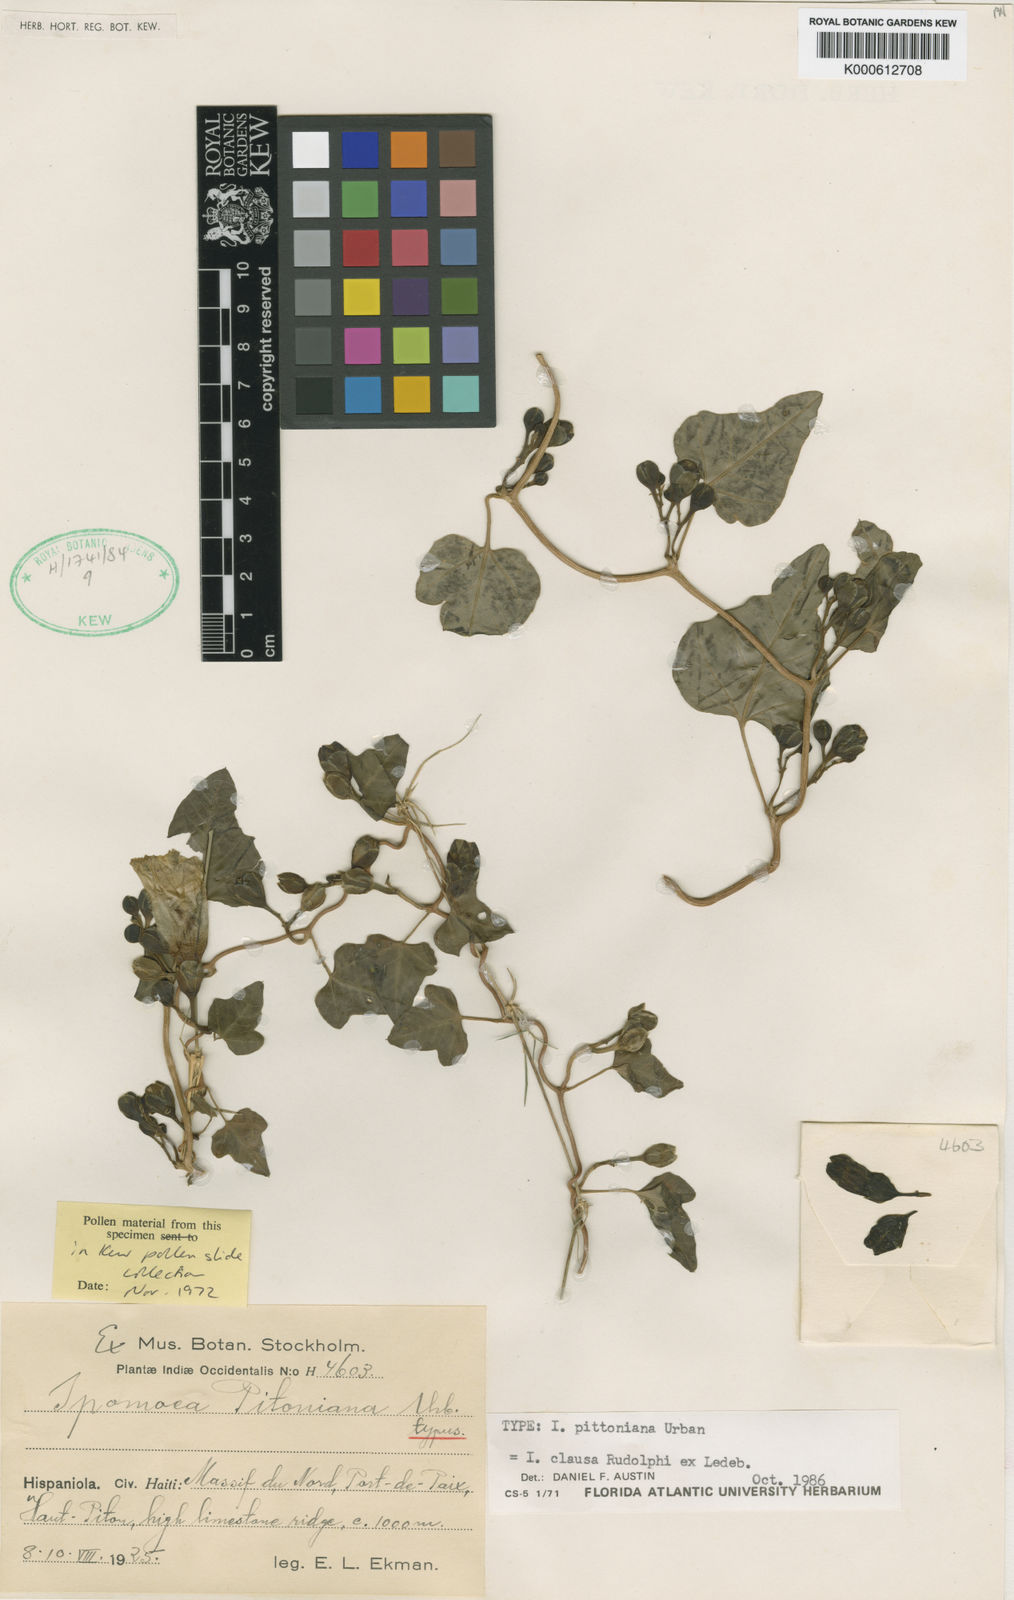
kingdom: Plantae
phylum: Tracheophyta
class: Magnoliopsida
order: Solanales
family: Convolvulaceae
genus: Ipomoea
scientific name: Ipomoea clausa
